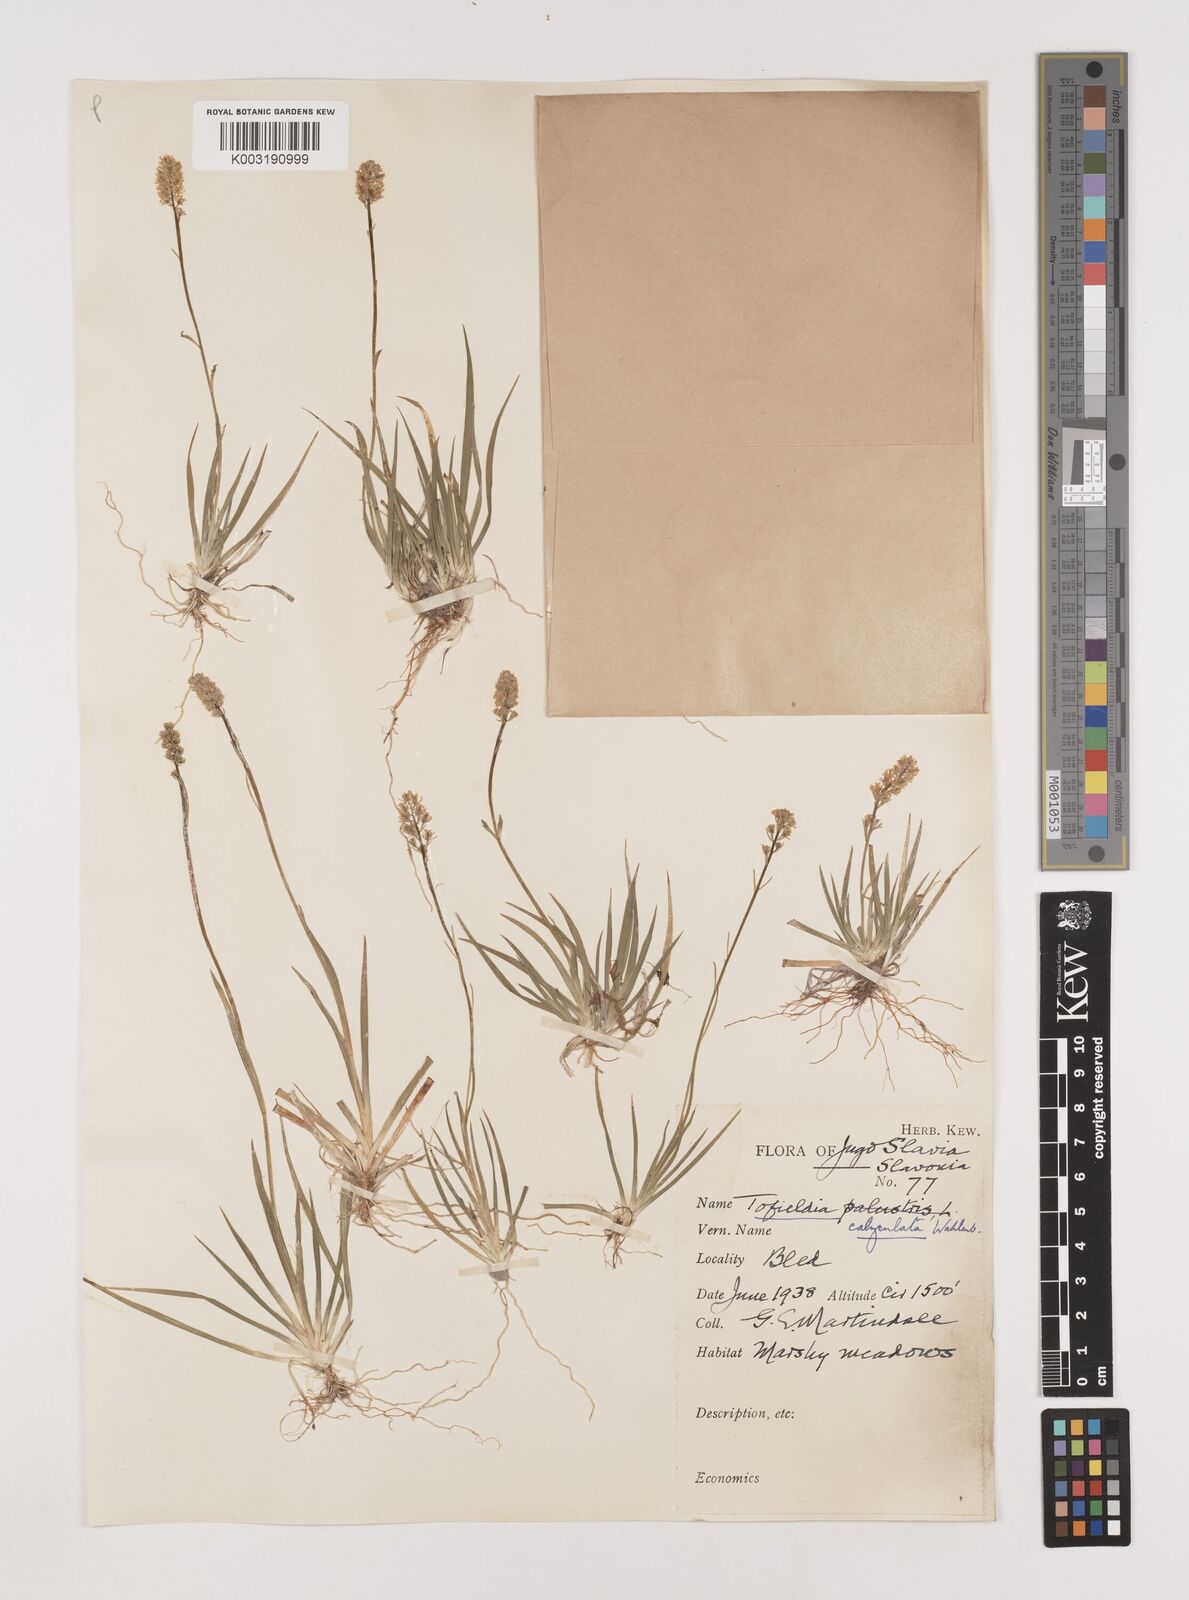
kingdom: Plantae
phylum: Tracheophyta
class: Liliopsida
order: Alismatales
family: Tofieldiaceae
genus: Tofieldia
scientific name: Tofieldia calyculata
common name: German-asphodel
